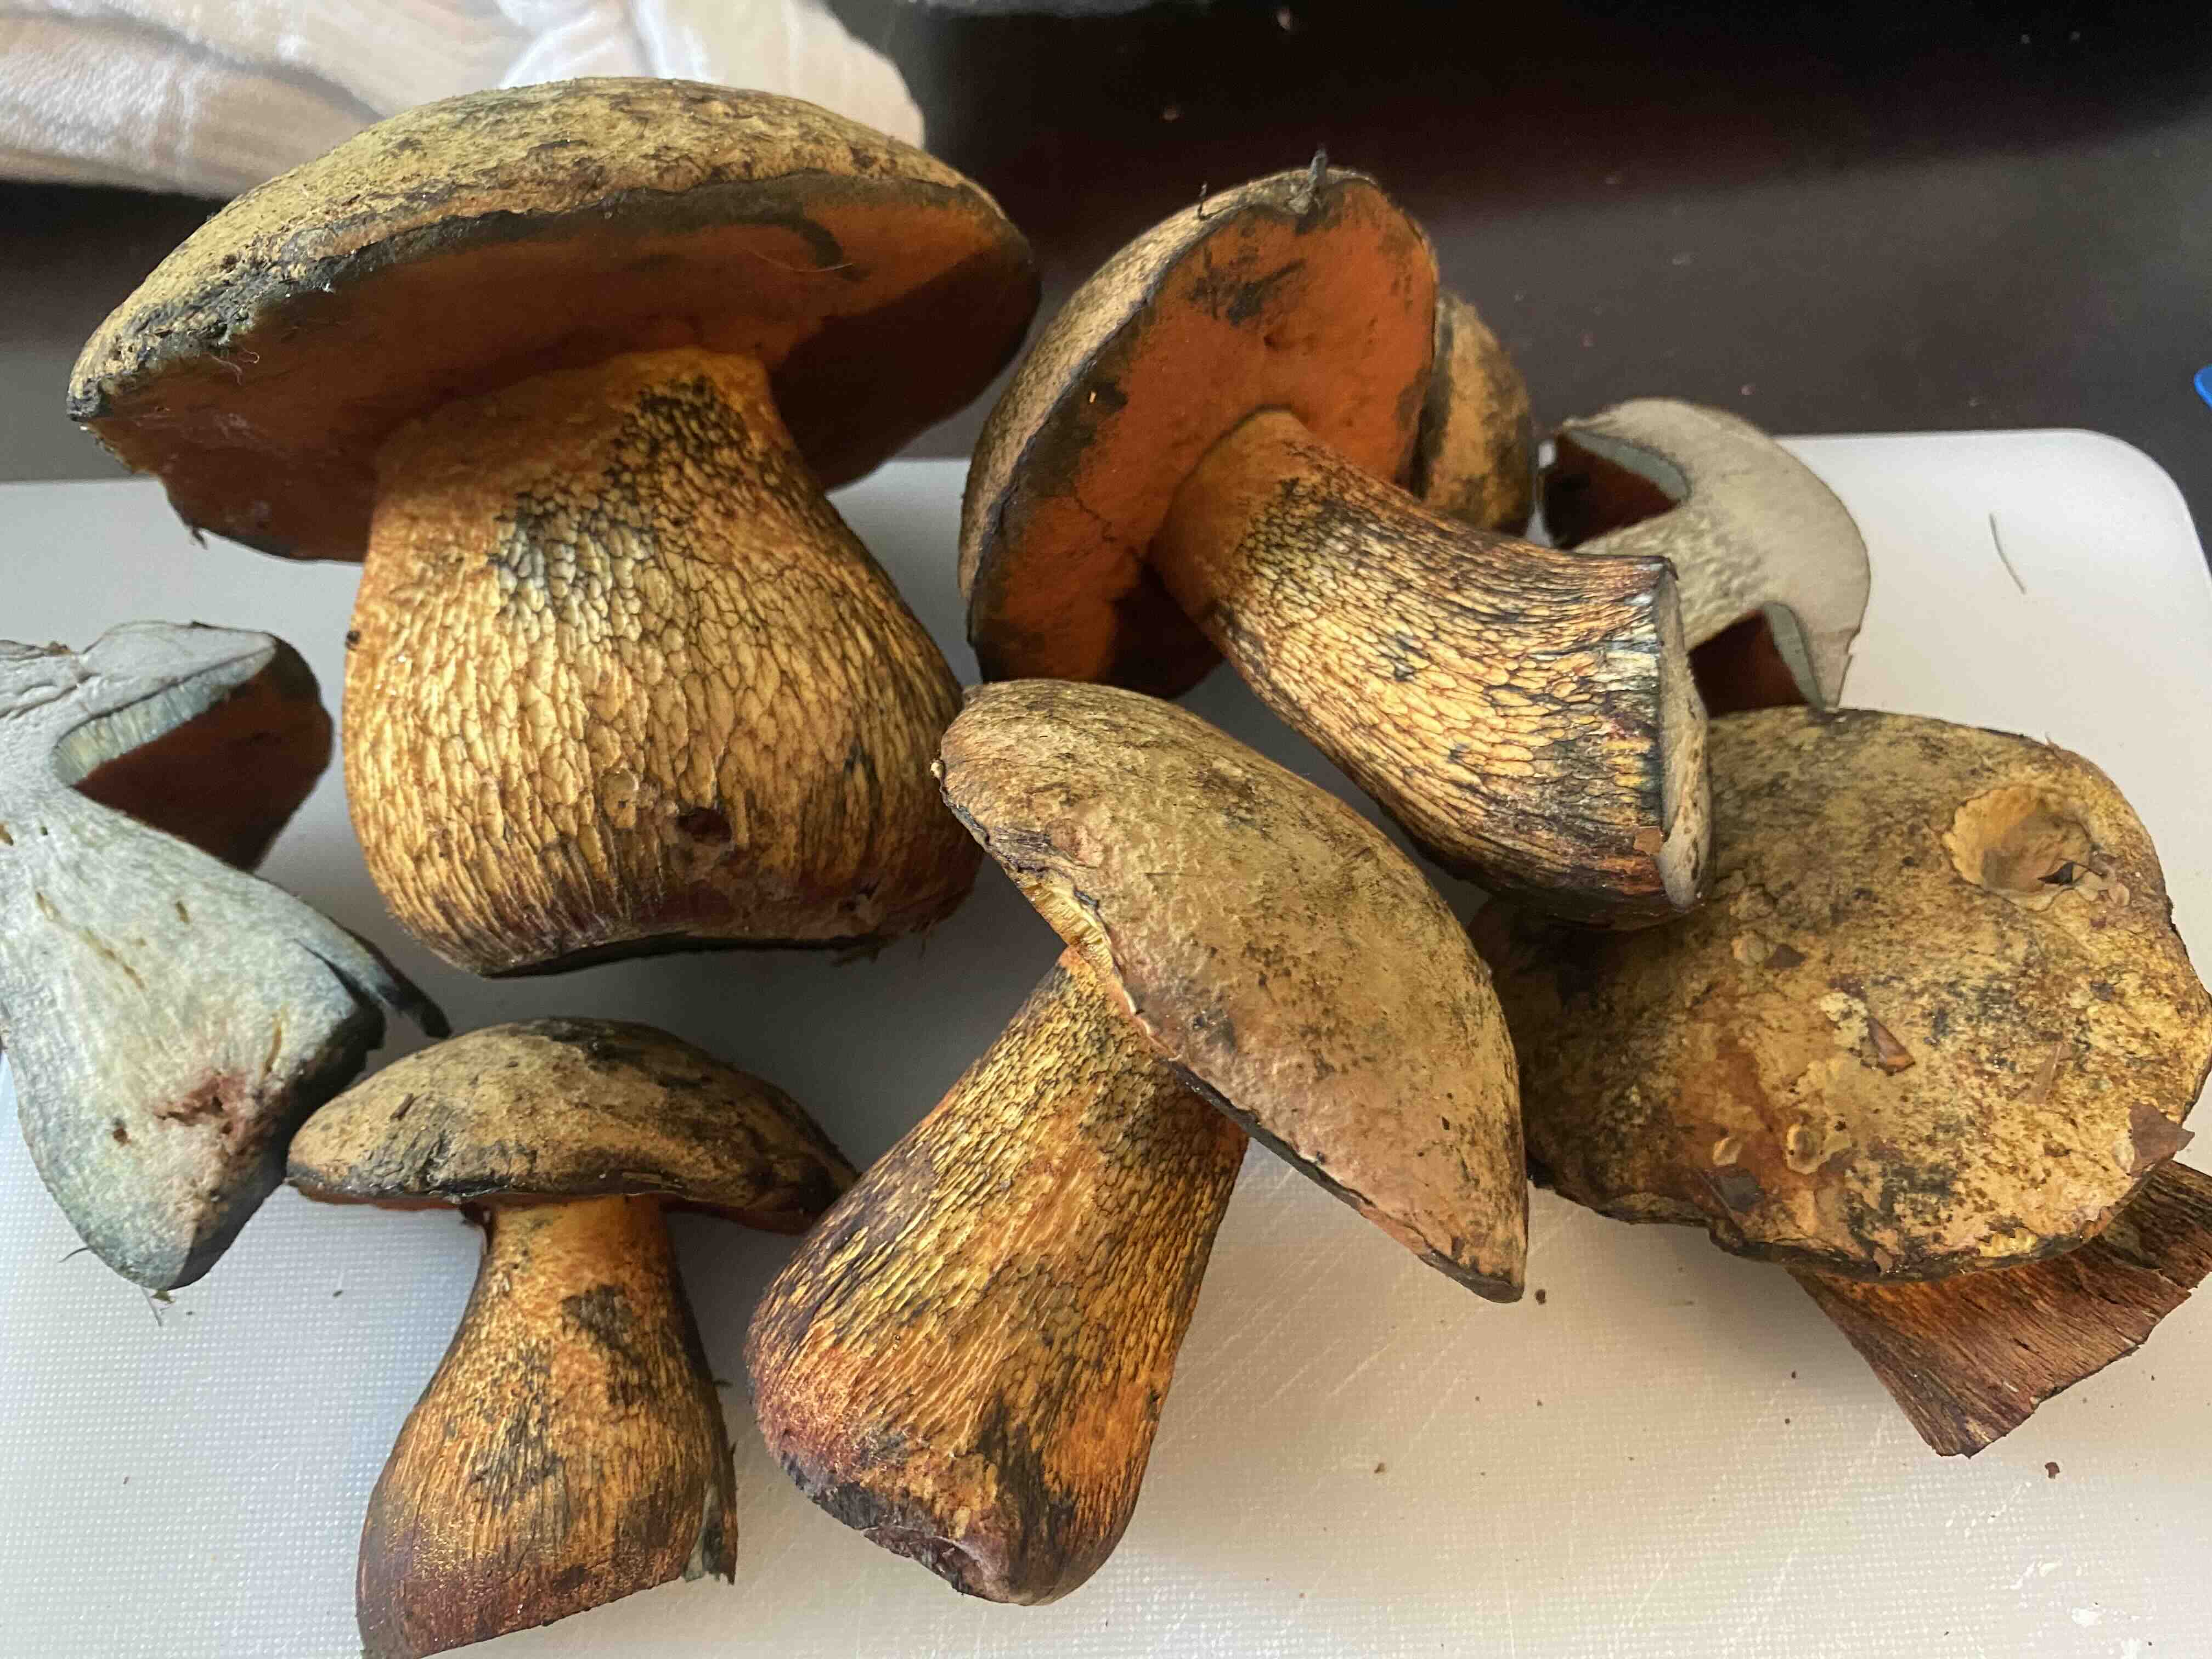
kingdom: Fungi
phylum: Basidiomycota
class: Agaricomycetes
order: Boletales
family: Boletaceae
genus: Suillellus
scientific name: Suillellus luridus
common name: netstokket indigorørhat
